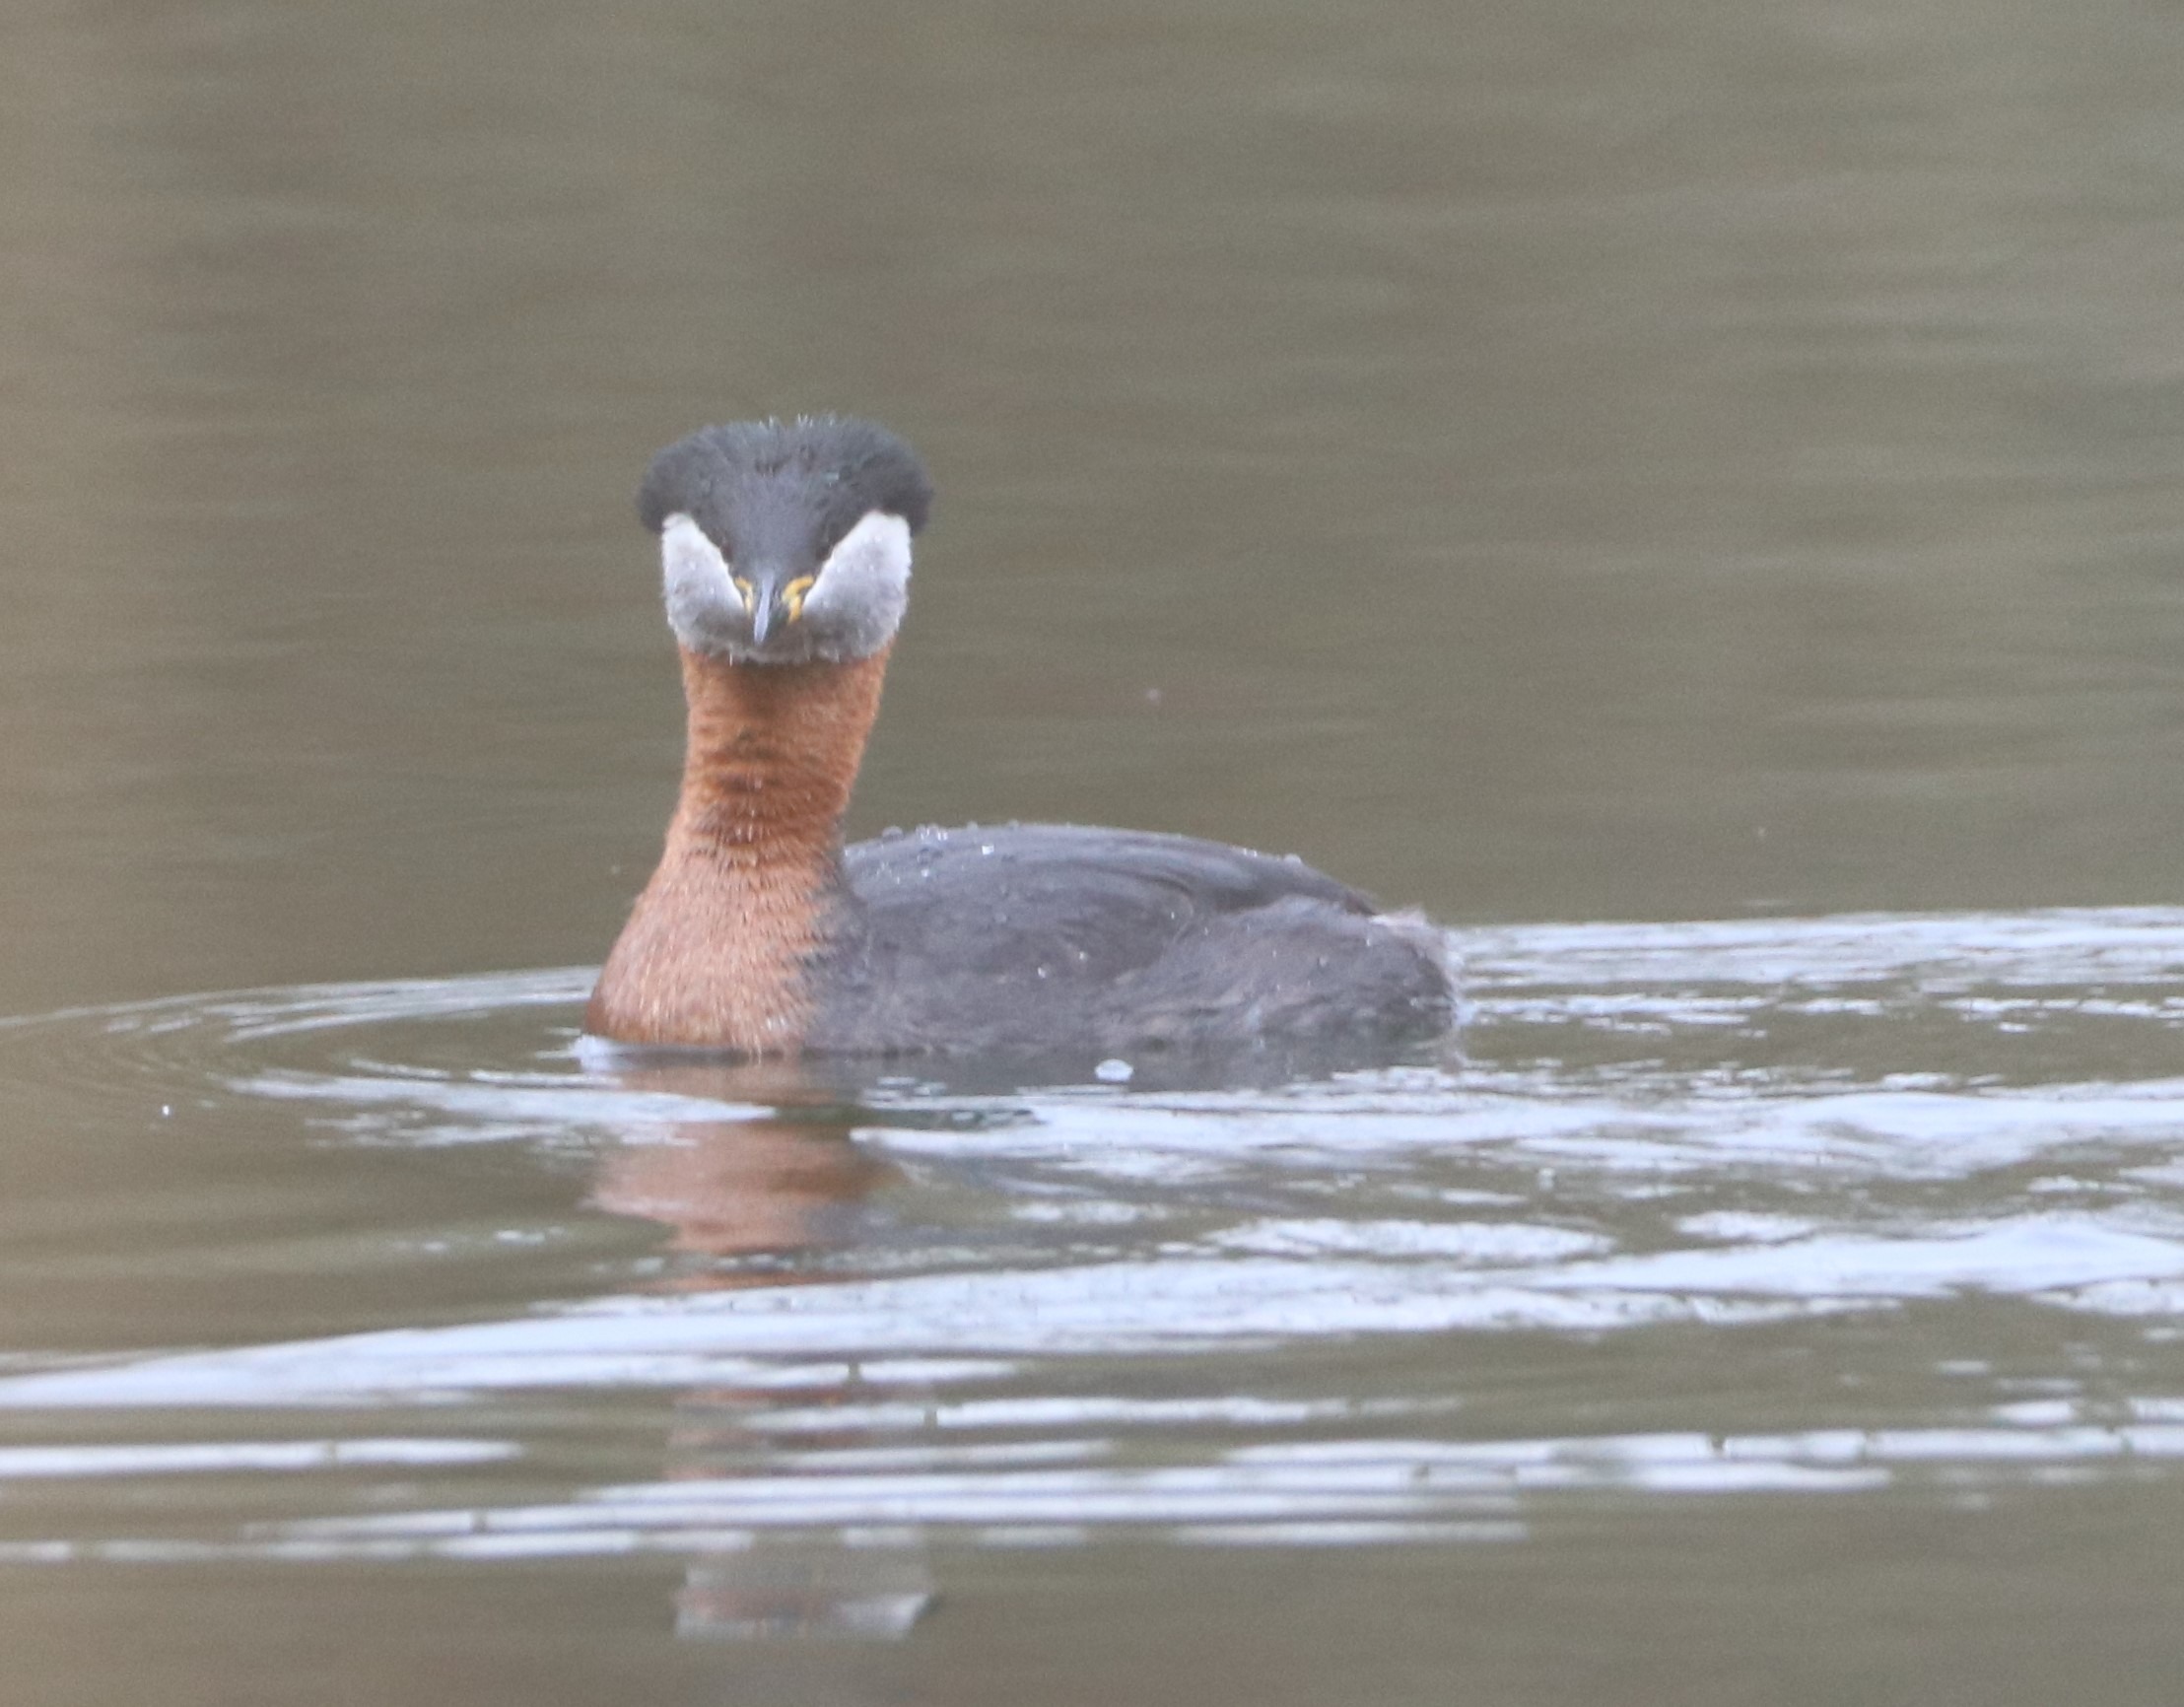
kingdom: Animalia
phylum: Chordata
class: Aves
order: Podicipediformes
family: Podicipedidae
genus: Podiceps
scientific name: Podiceps grisegena
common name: Gråstrubet lappedykker
